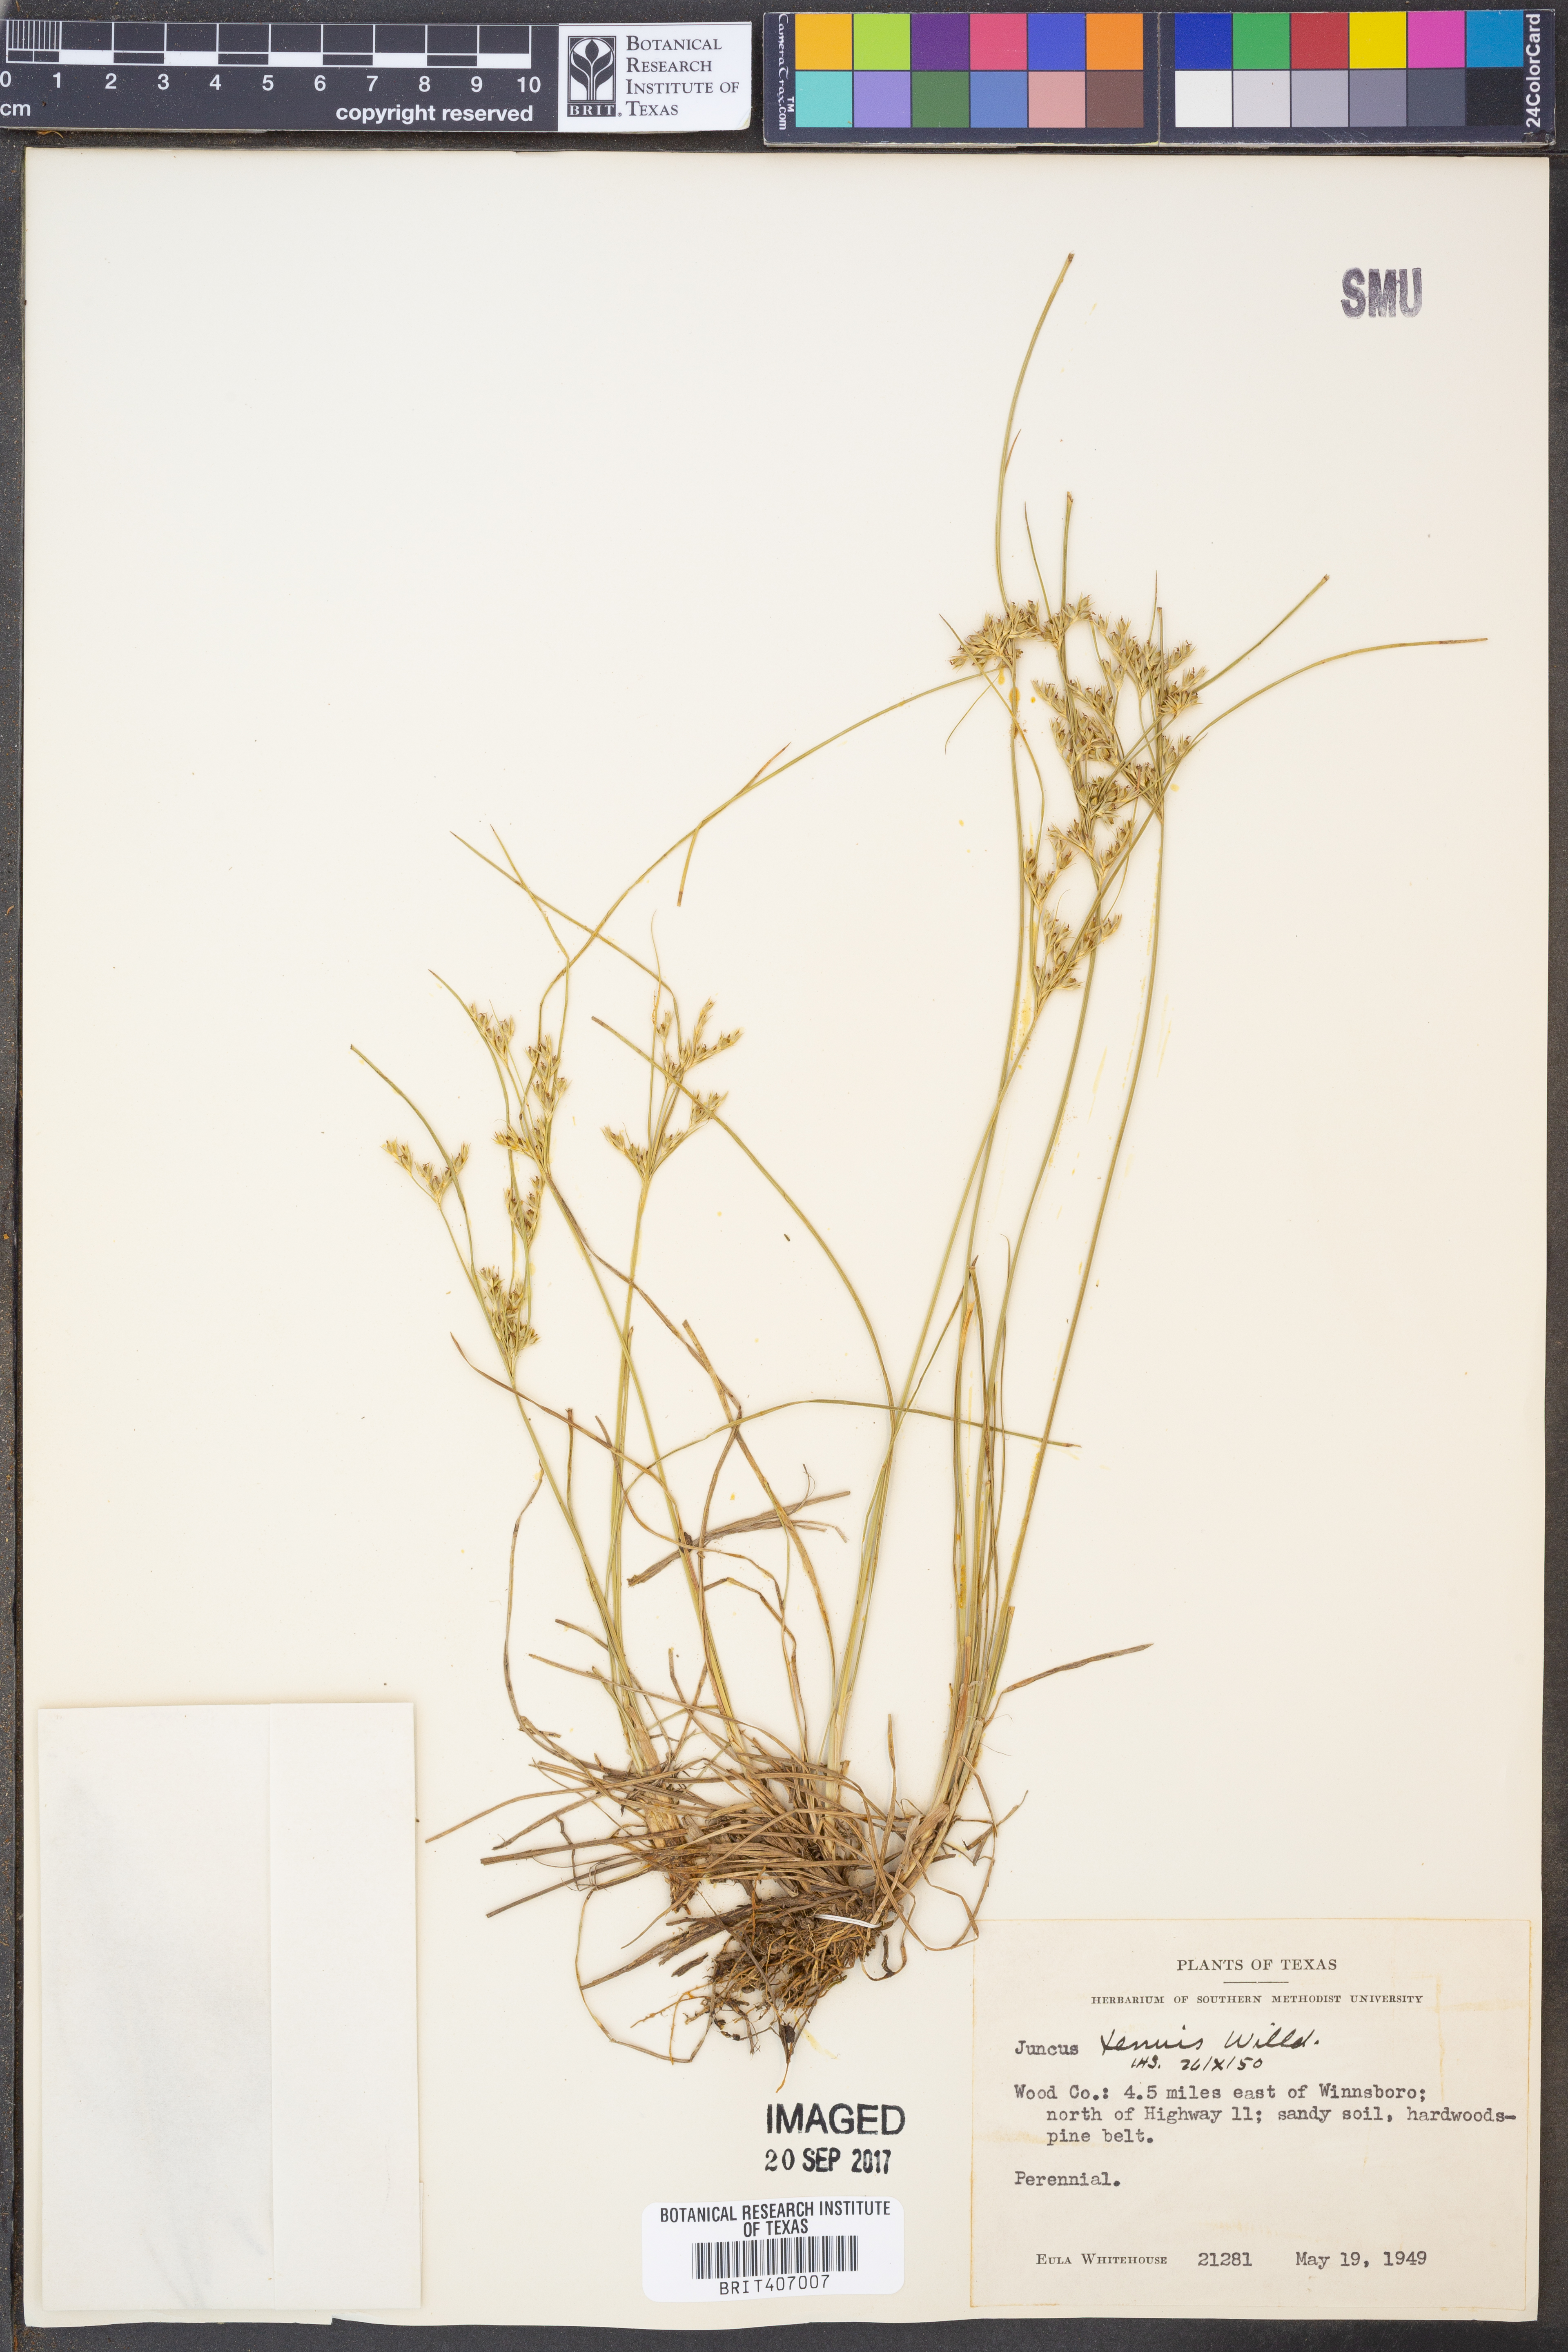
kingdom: Plantae
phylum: Tracheophyta
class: Liliopsida
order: Poales
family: Juncaceae
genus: Juncus
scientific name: Juncus tenuis
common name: Slender rush
